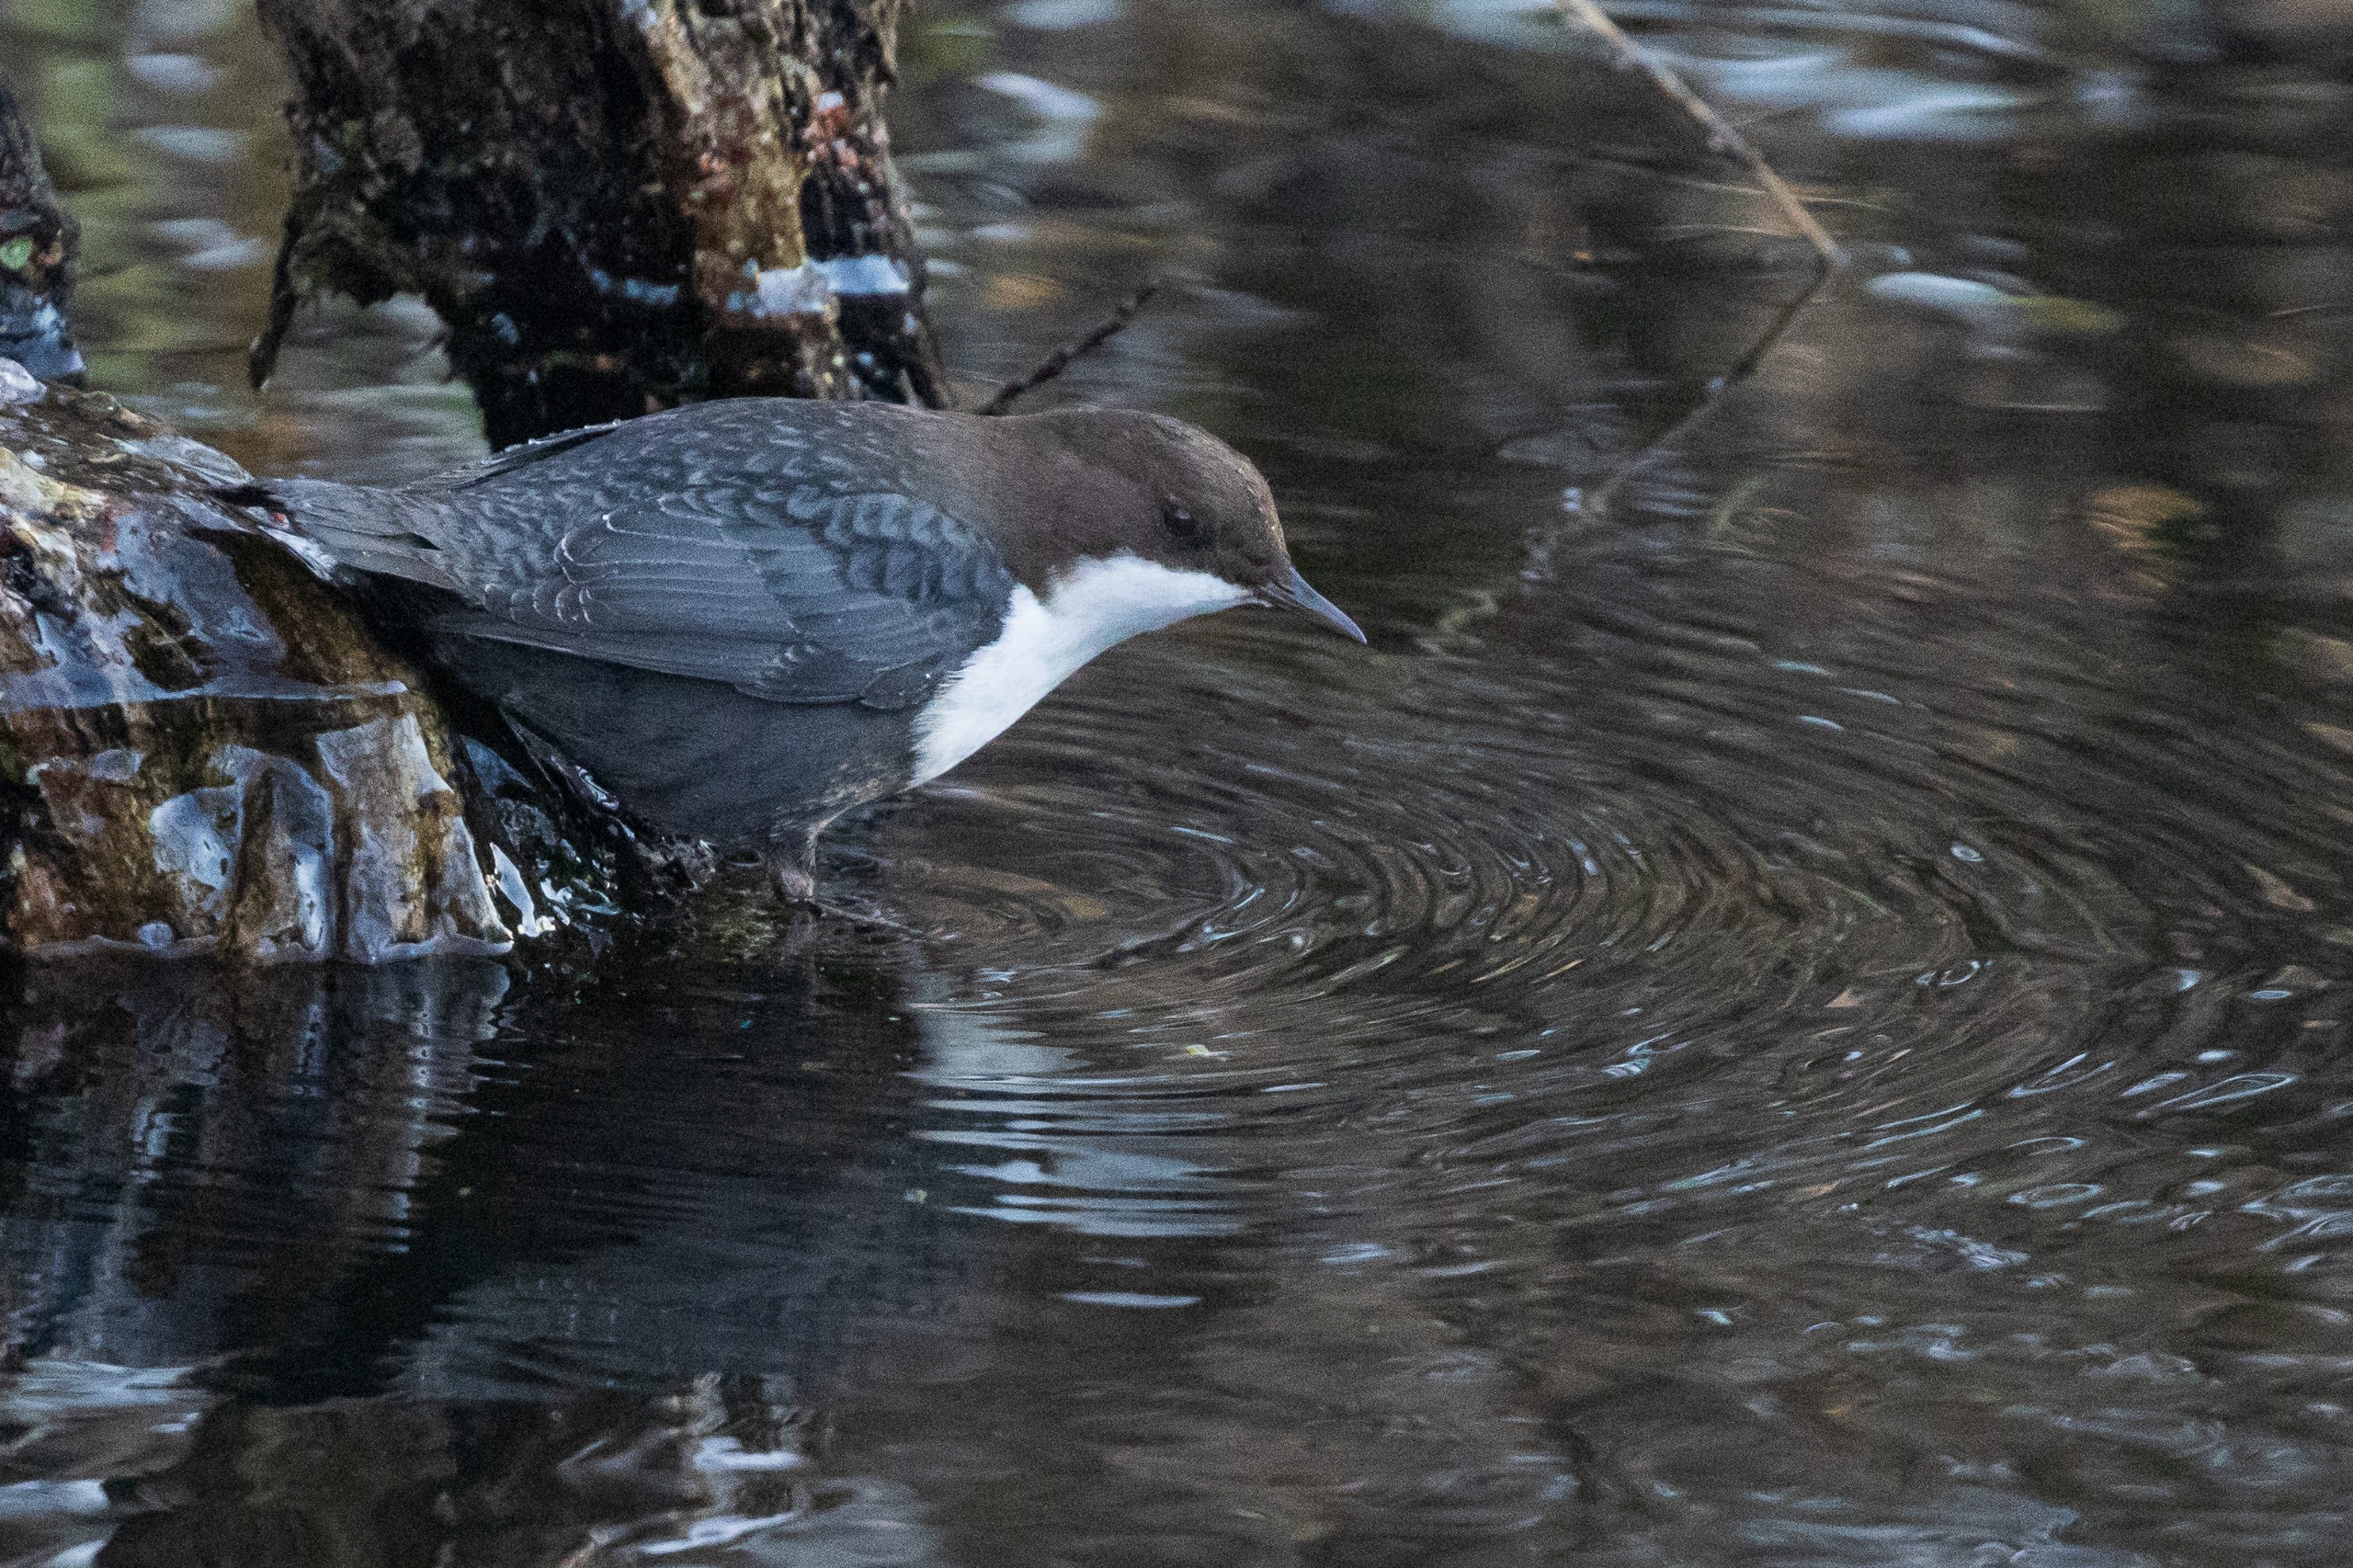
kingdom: Animalia
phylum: Chordata
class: Aves
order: Passeriformes
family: Cinclidae
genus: Cinclus
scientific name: Cinclus cinclus
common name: Vandstær
